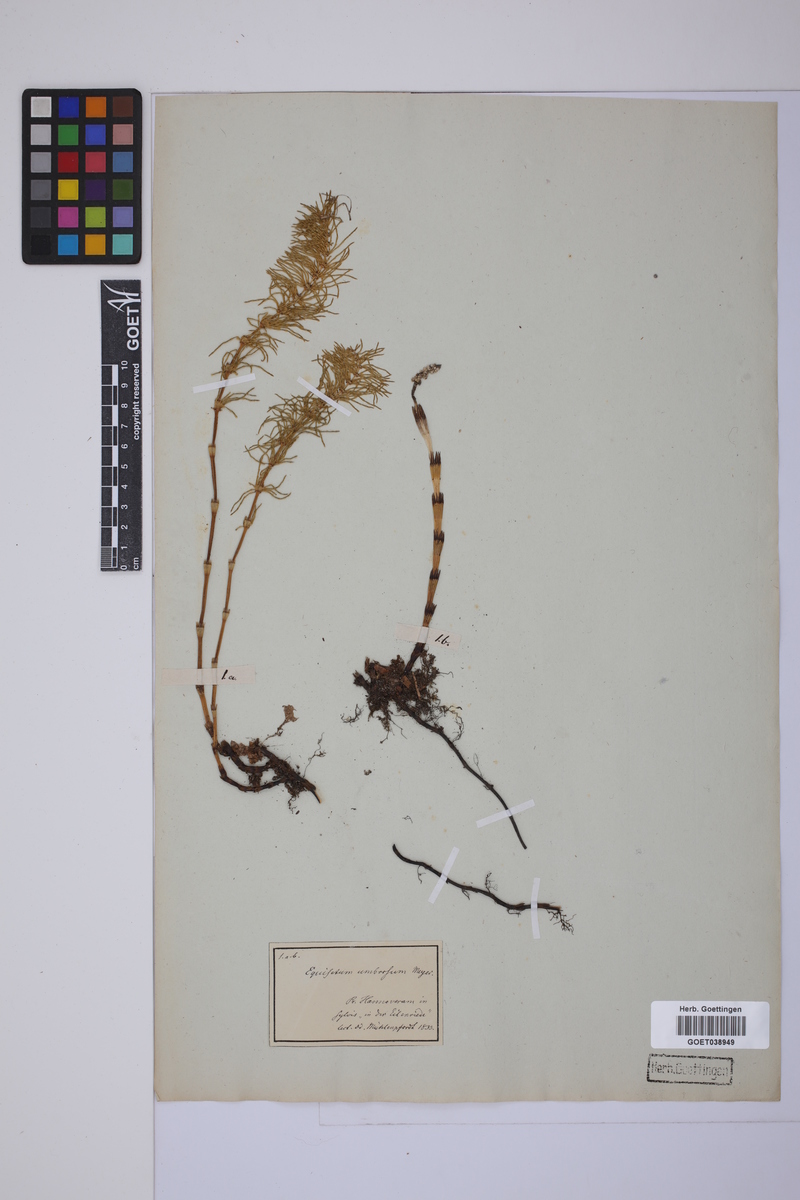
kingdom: Plantae
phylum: Tracheophyta
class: Polypodiopsida
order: Equisetales
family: Equisetaceae
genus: Equisetum
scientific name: Equisetum pratense
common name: Meadow horsetail
